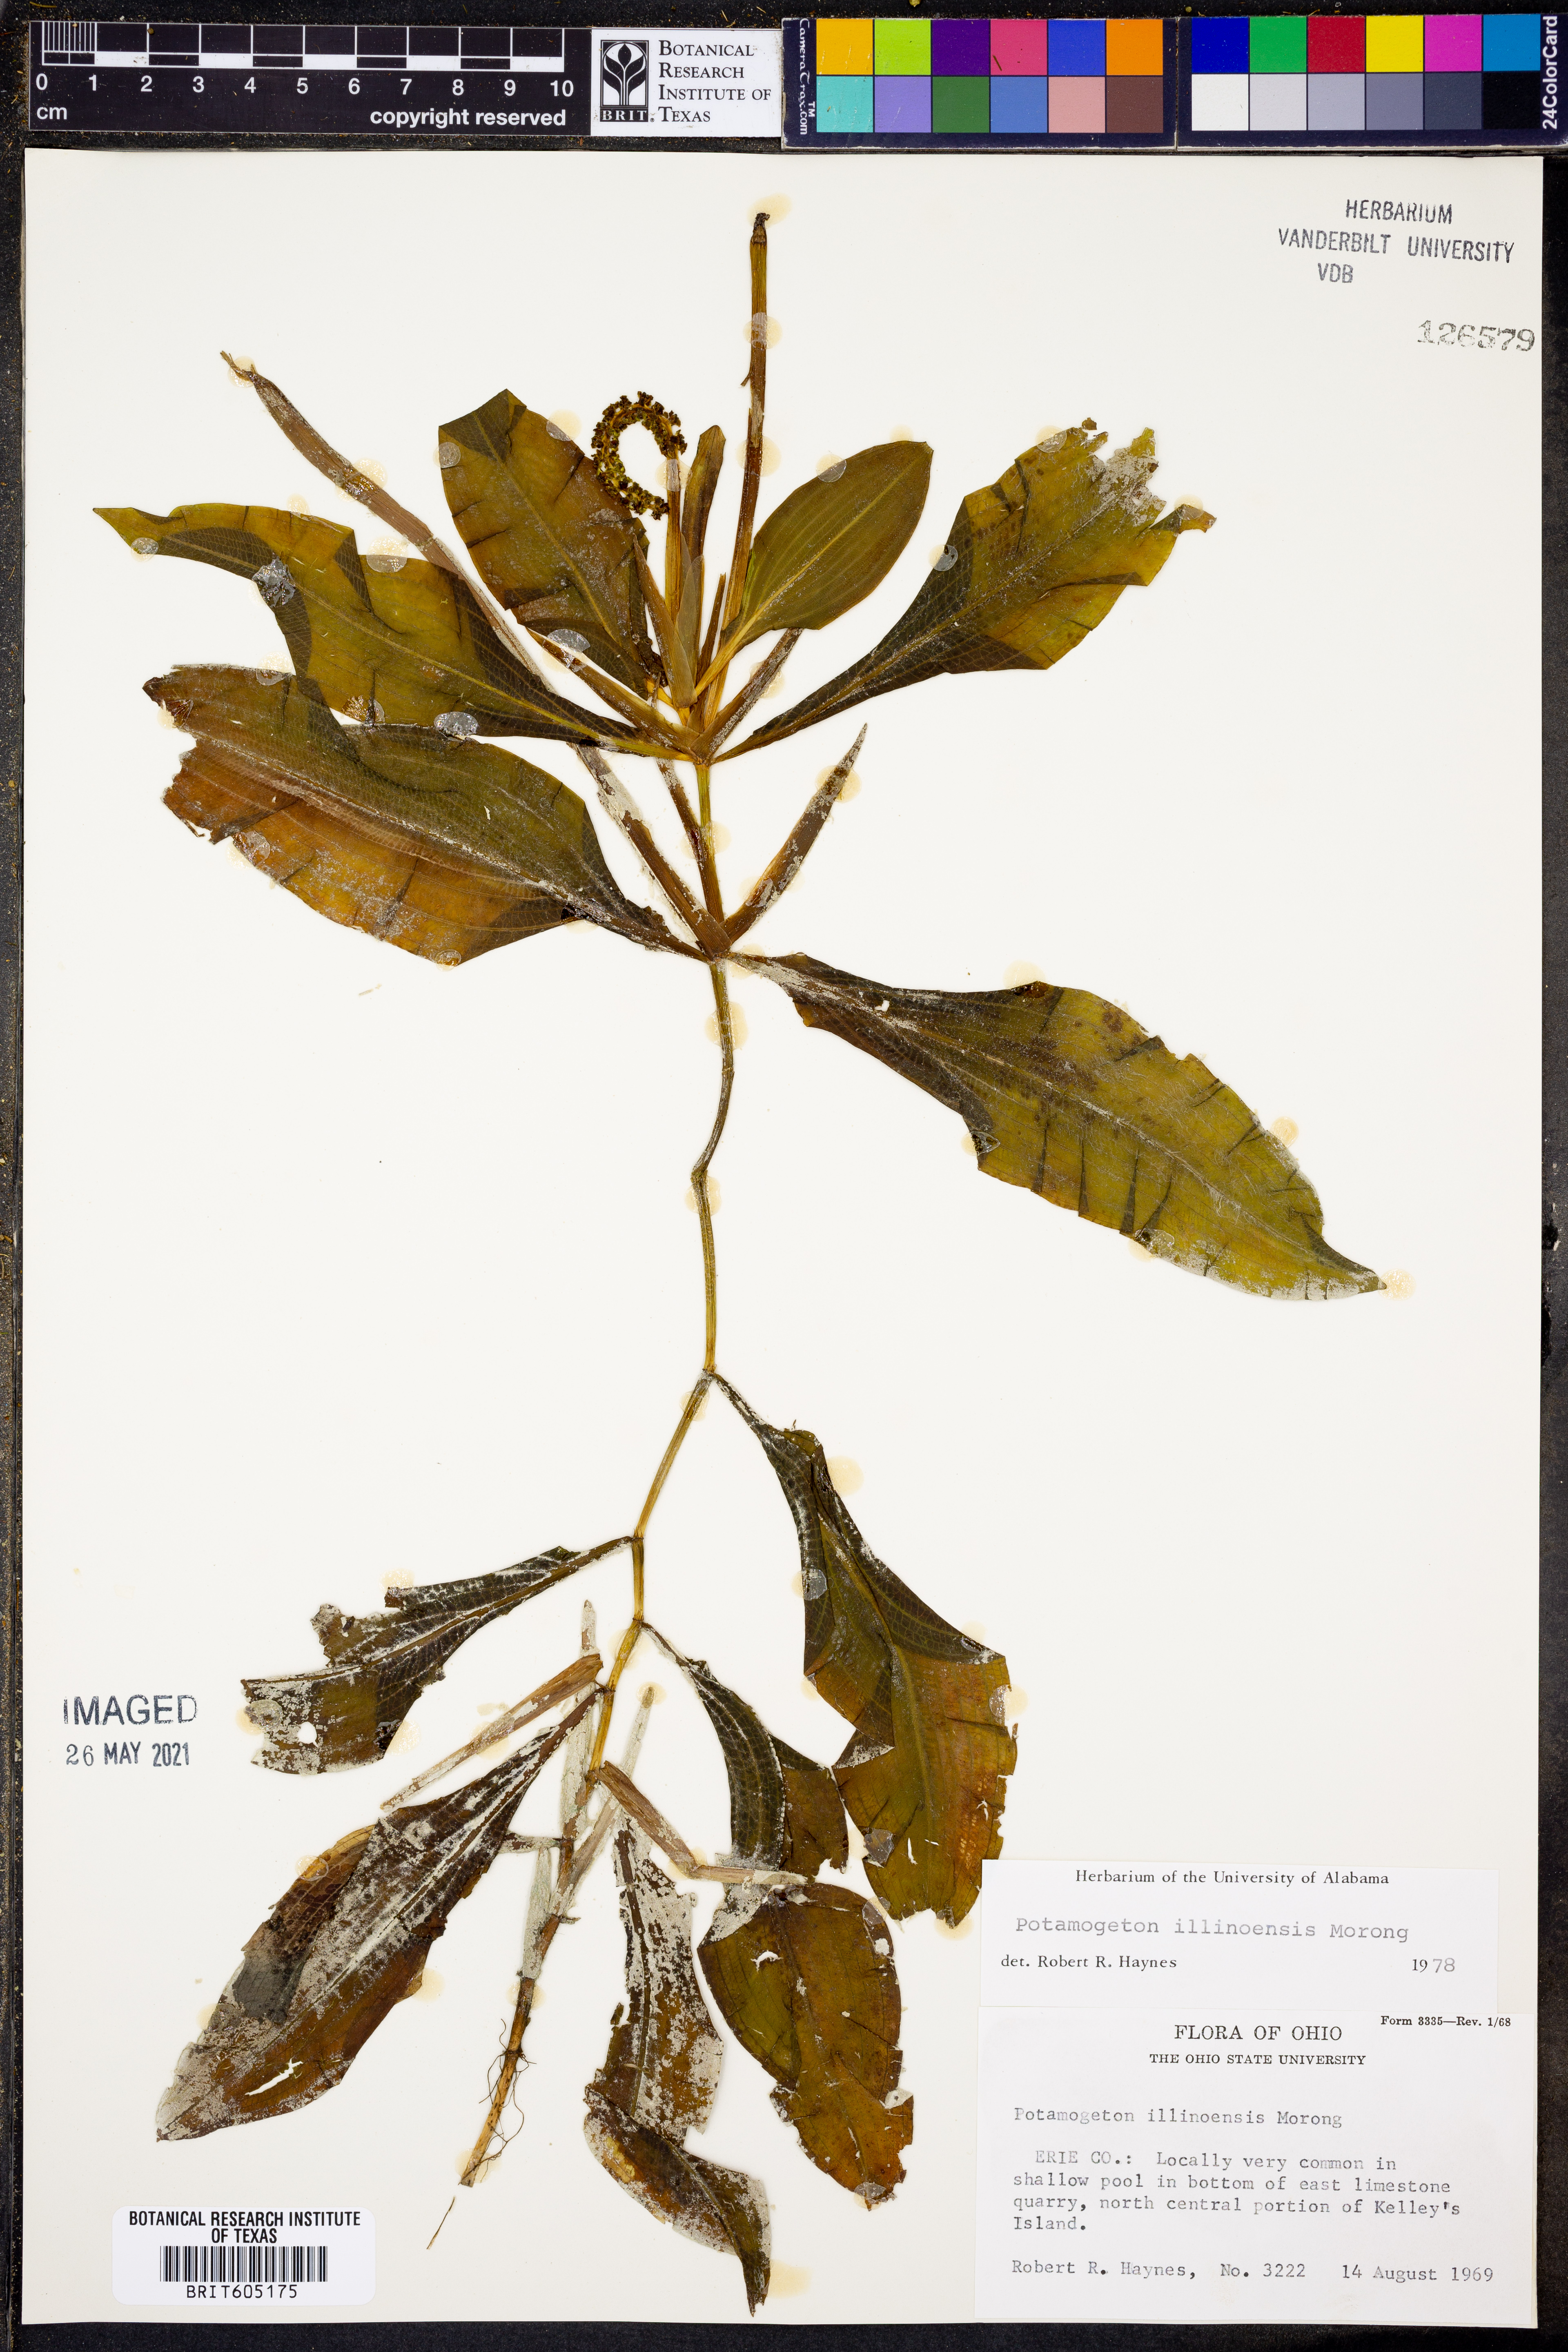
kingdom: Plantae
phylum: Tracheophyta
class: Liliopsida
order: Alismatales
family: Potamogetonaceae
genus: Potamogeton
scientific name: Potamogeton illinoensis
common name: Illinois pondweed
